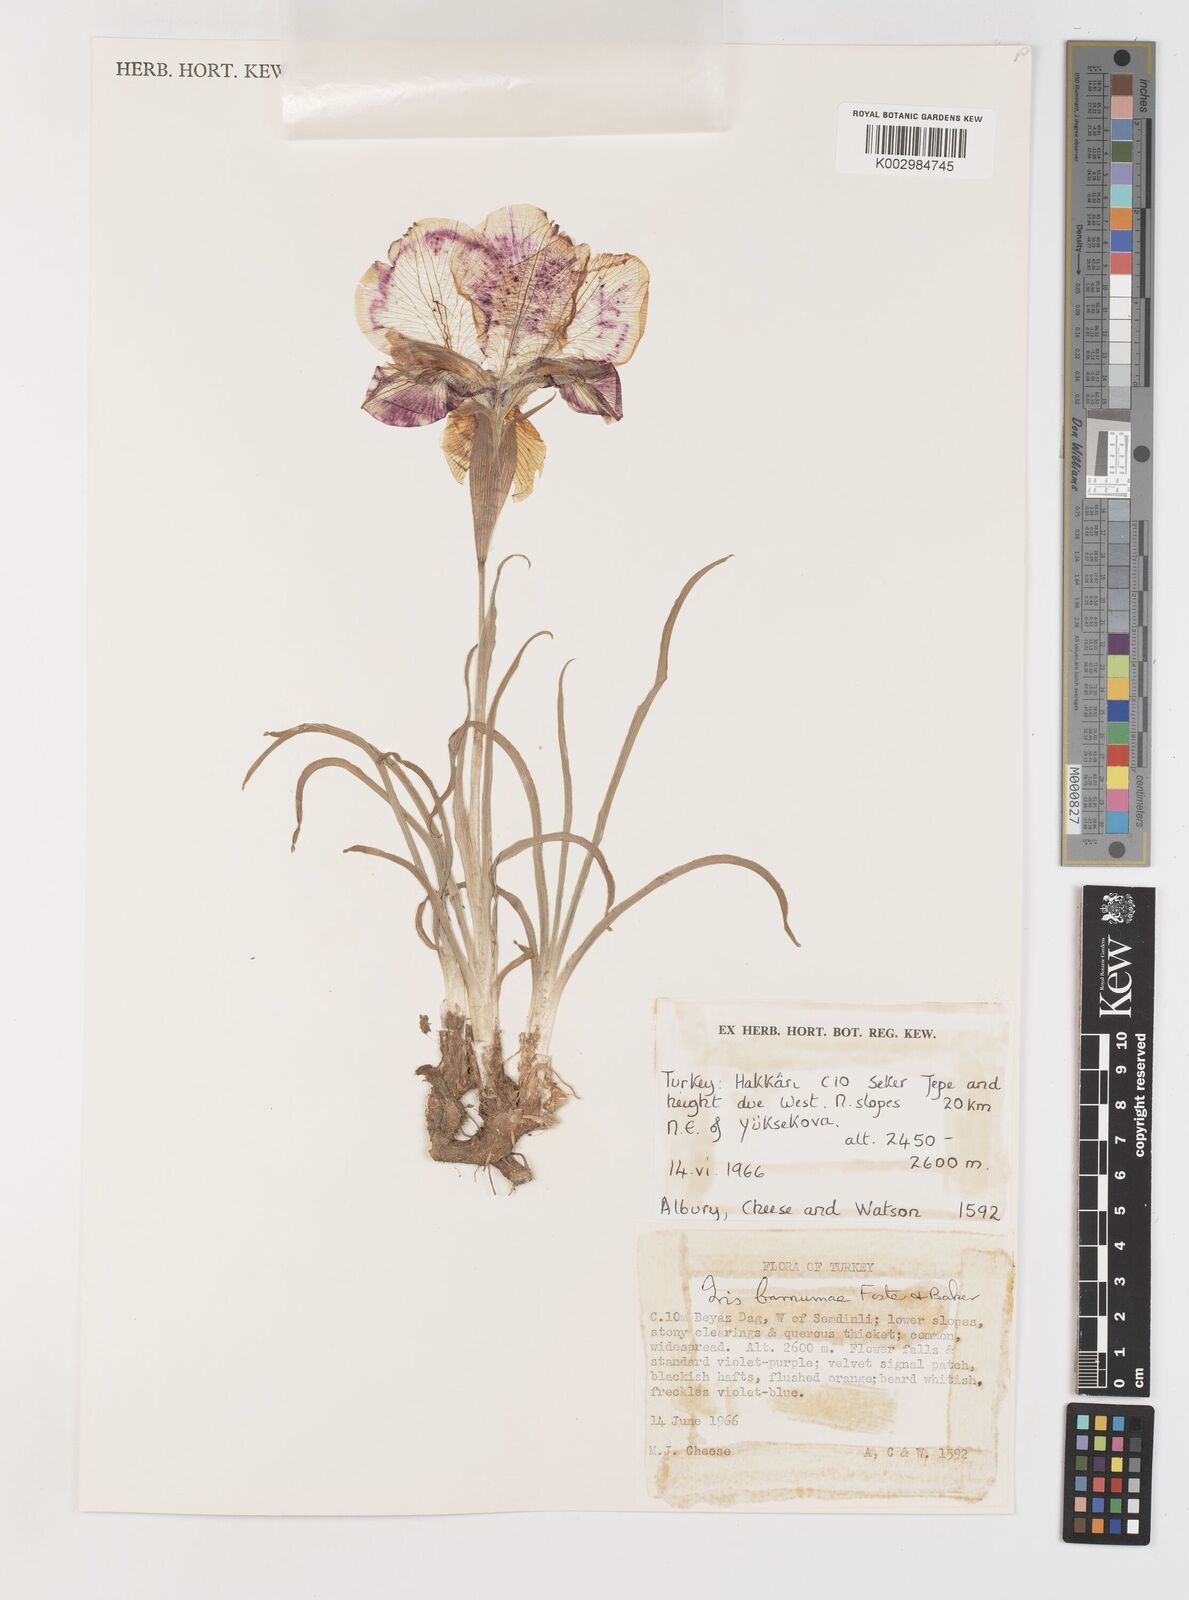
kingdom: Plantae
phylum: Tracheophyta
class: Liliopsida
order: Asparagales
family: Iridaceae
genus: Iris
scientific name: Iris barnumiae
